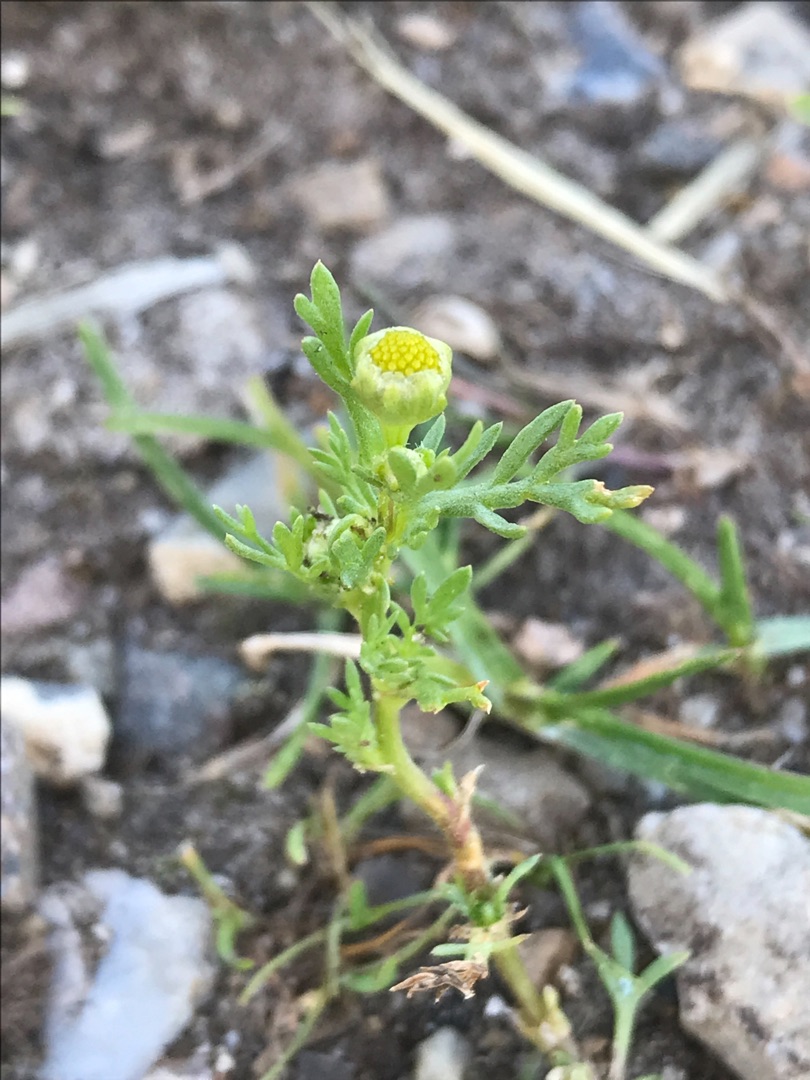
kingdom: Plantae
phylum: Tracheophyta
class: Magnoliopsida
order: Asterales
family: Asteraceae
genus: Matricaria
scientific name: Matricaria discoidea
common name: Skive-kamille
